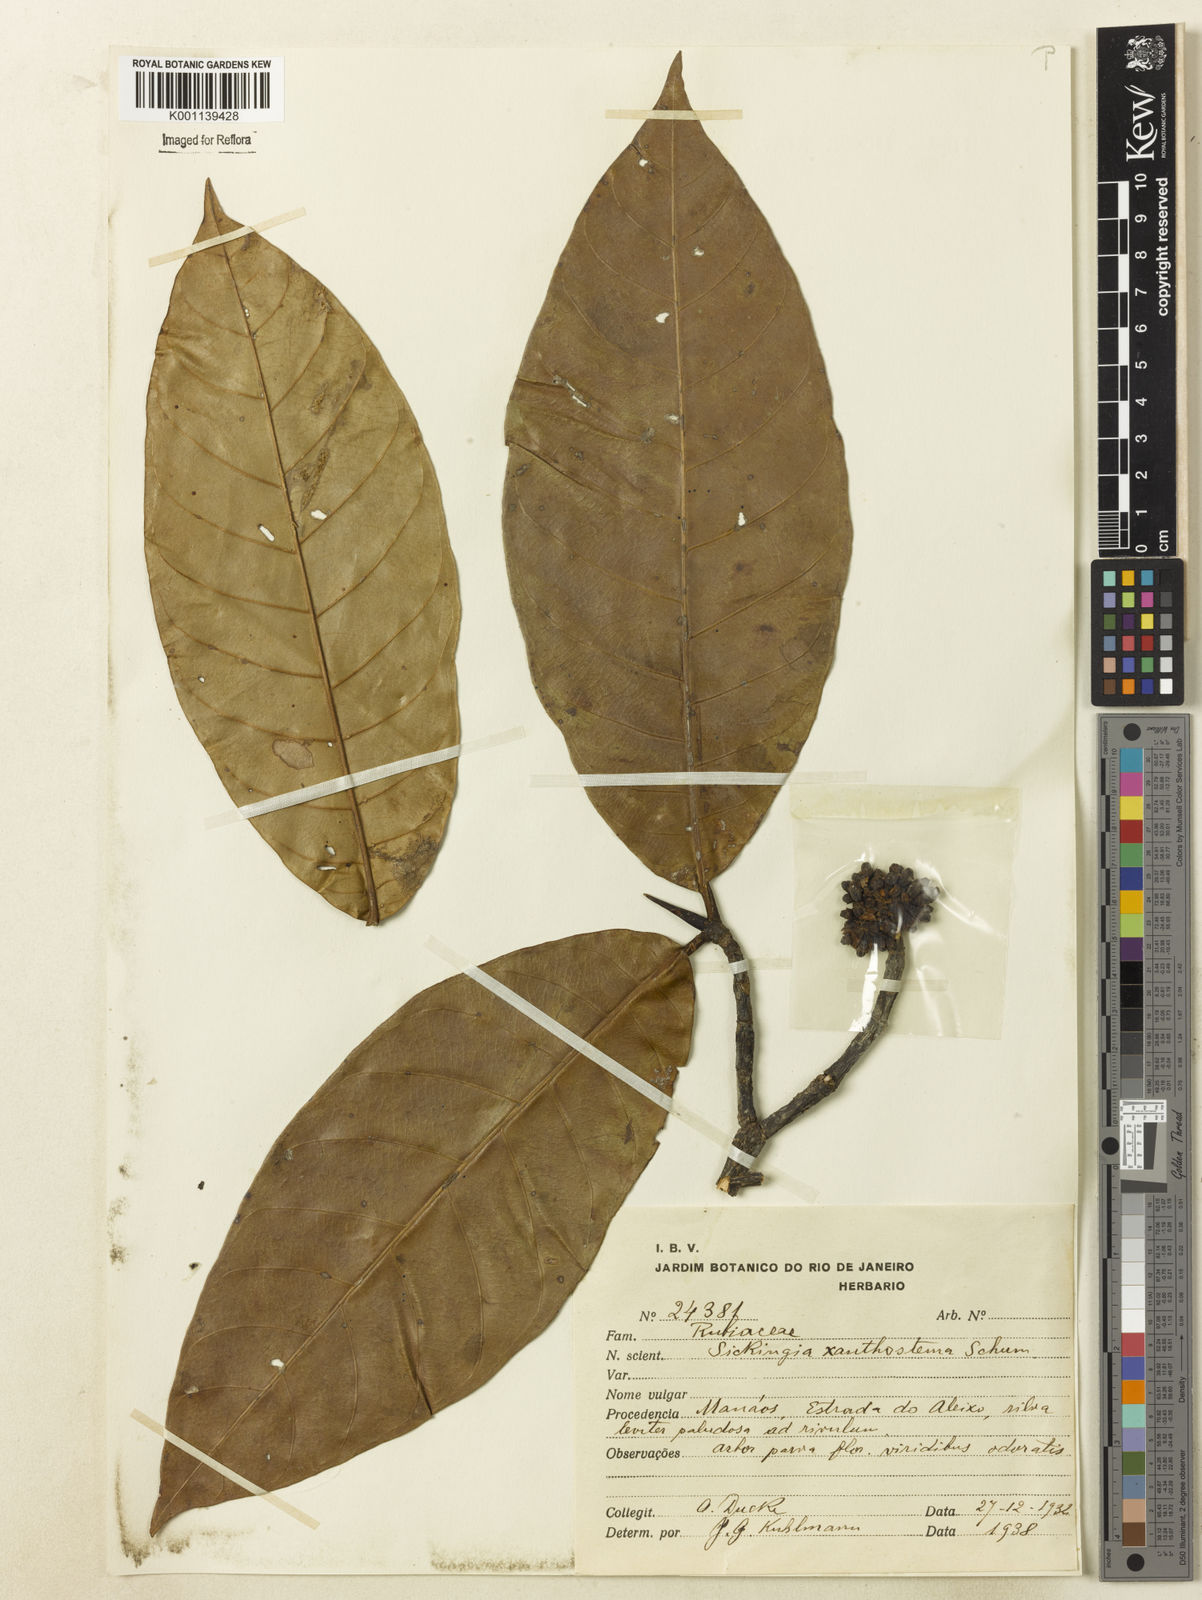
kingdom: Plantae
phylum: Tracheophyta
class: Magnoliopsida
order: Gentianales
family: Rubiaceae
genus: Simira
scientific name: Simira rubescens
